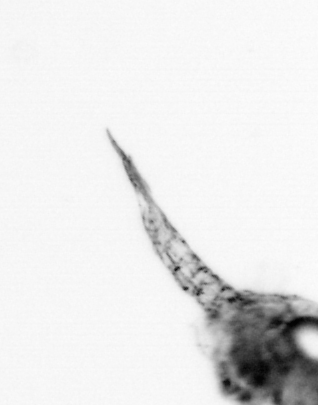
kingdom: Animalia
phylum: Arthropoda
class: Copepoda
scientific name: Copepoda
